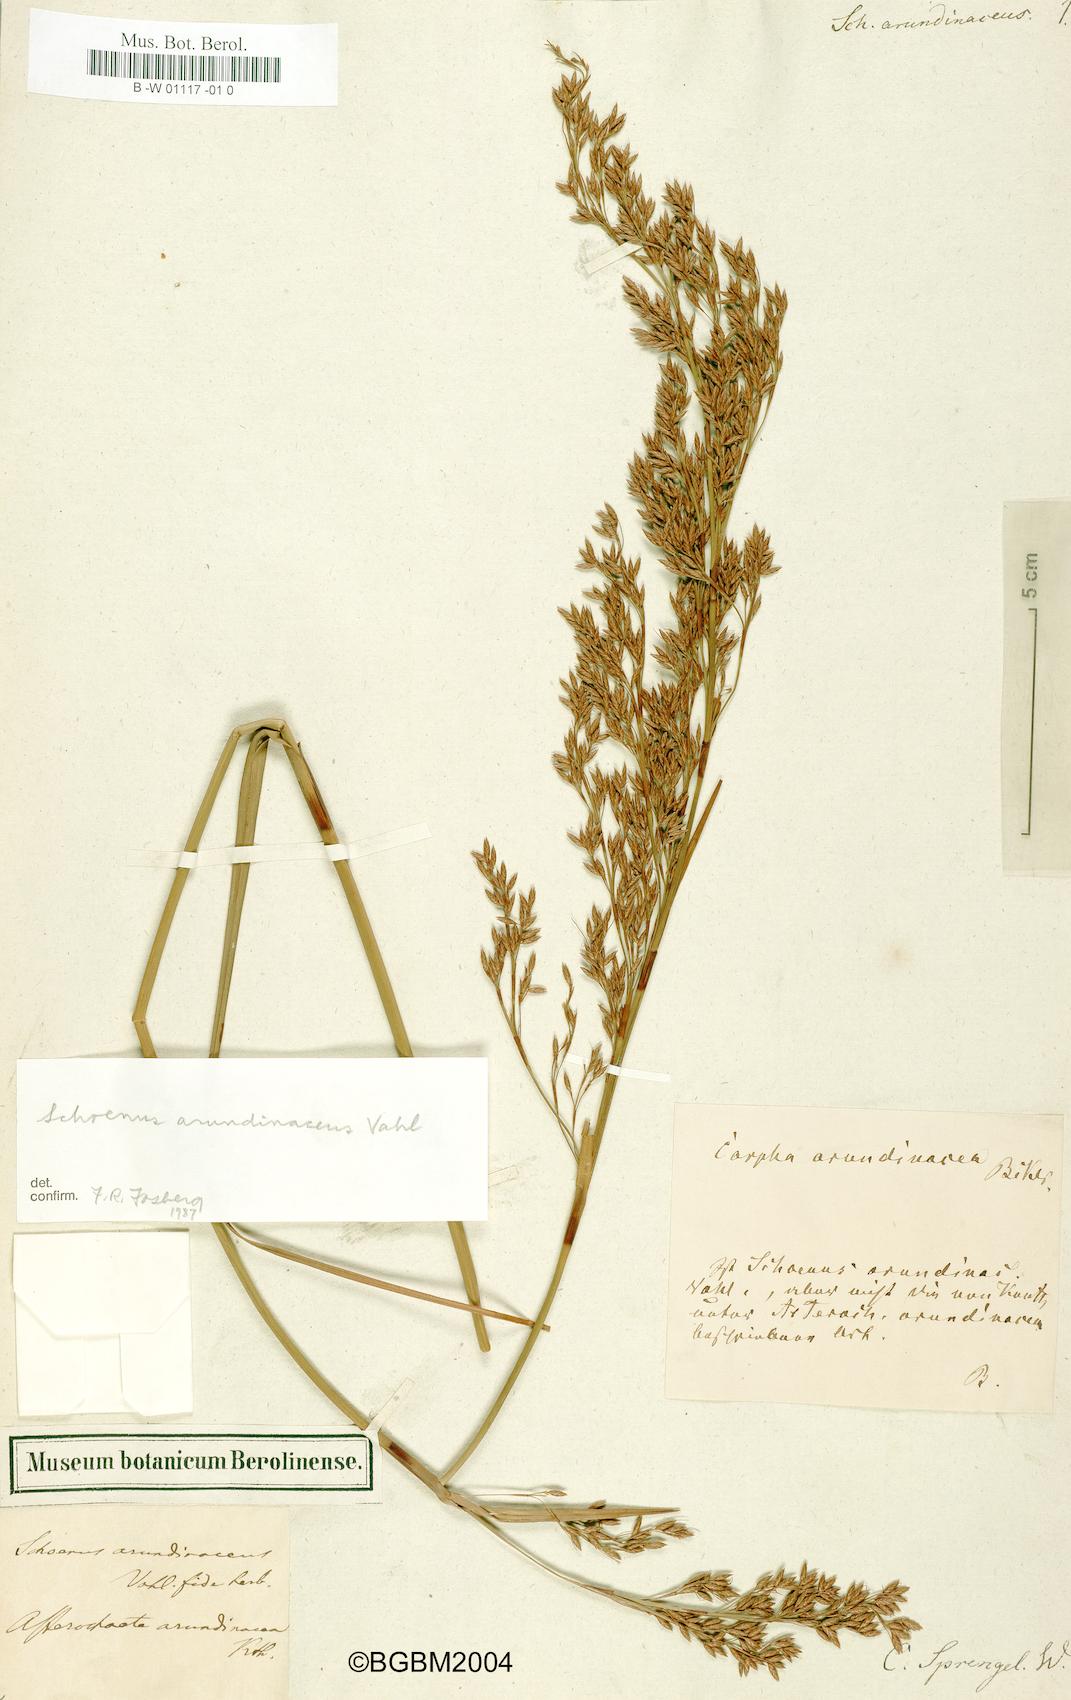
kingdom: Plantae
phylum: Tracheophyta
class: Liliopsida
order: Poales
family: Cyperaceae
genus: Schoenus
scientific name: Schoenus arundinaceus
